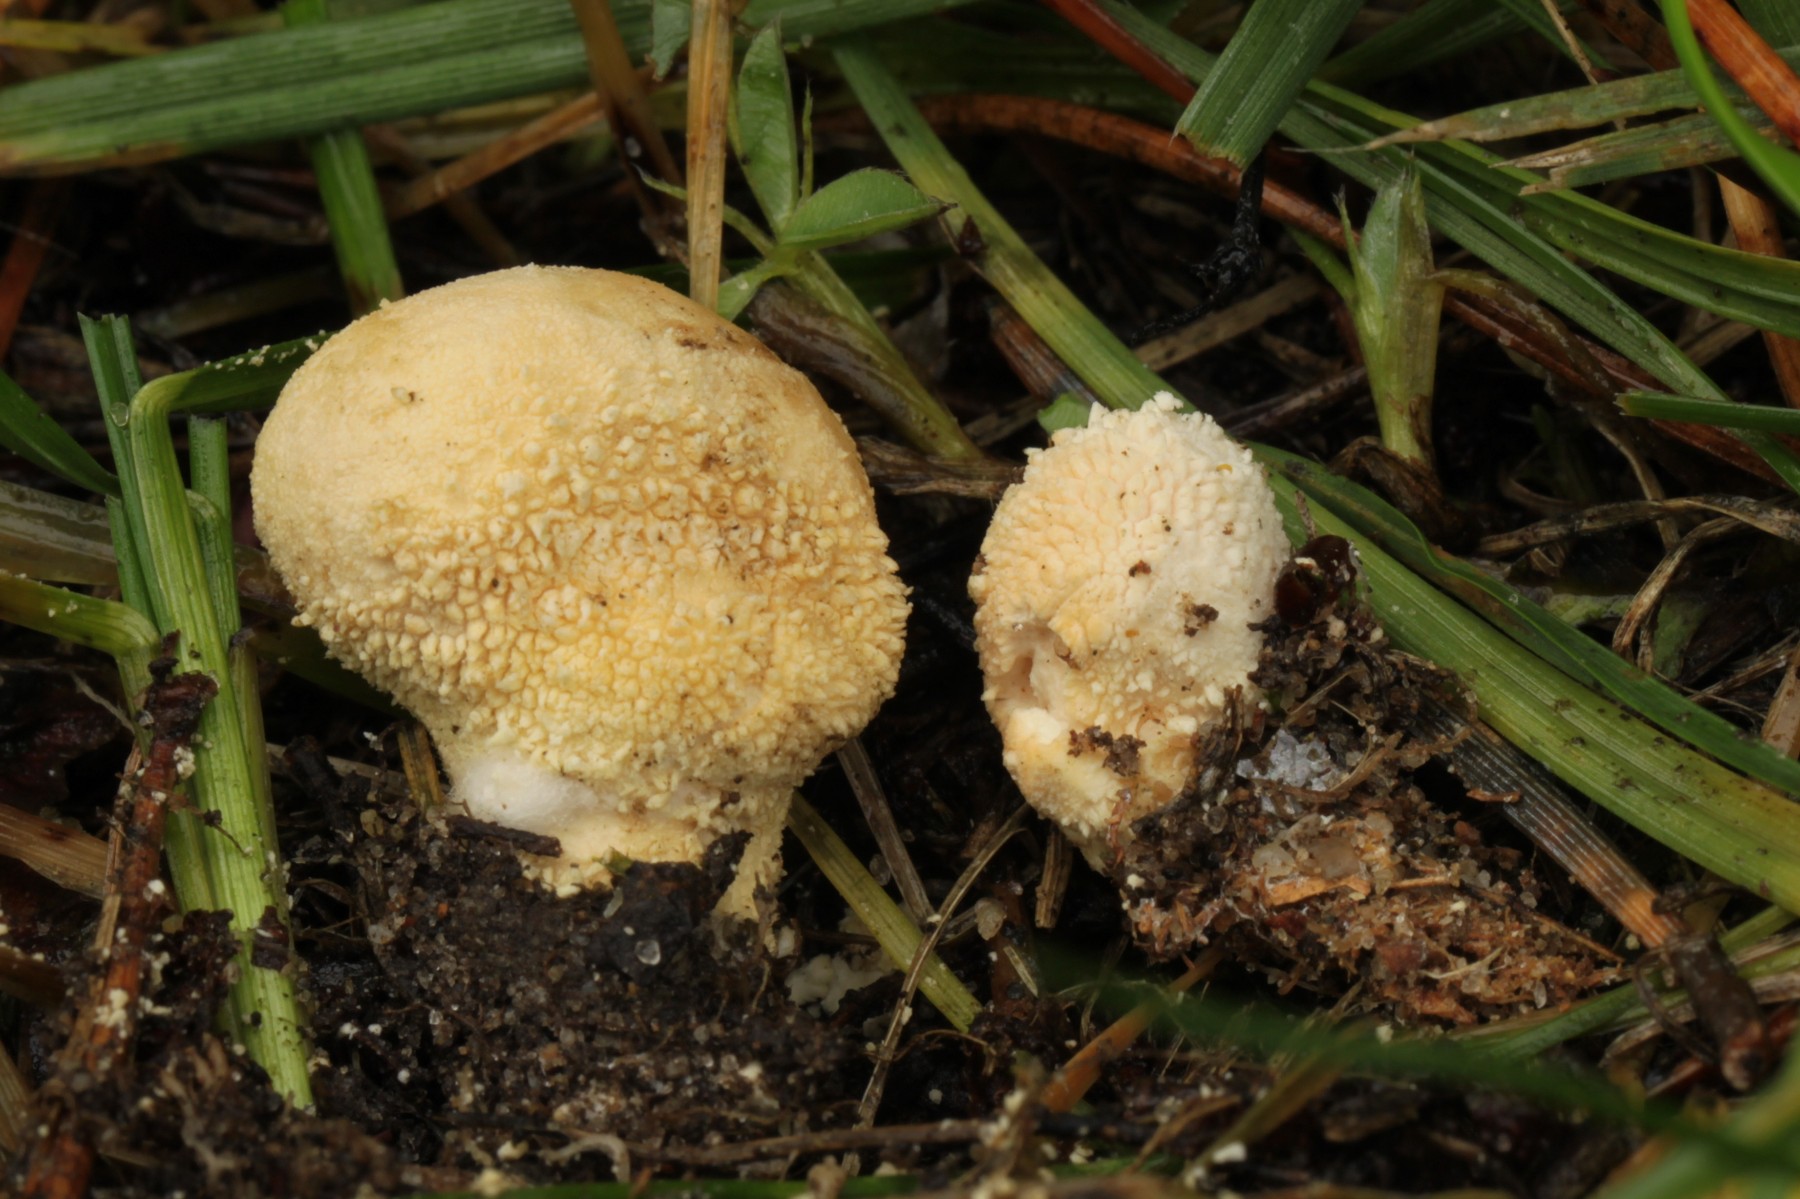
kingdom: Fungi
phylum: Basidiomycota
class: Agaricomycetes
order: Agaricales
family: Lycoperdaceae
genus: Lycoperdon
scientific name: Lycoperdon pratense
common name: flad støvbold
